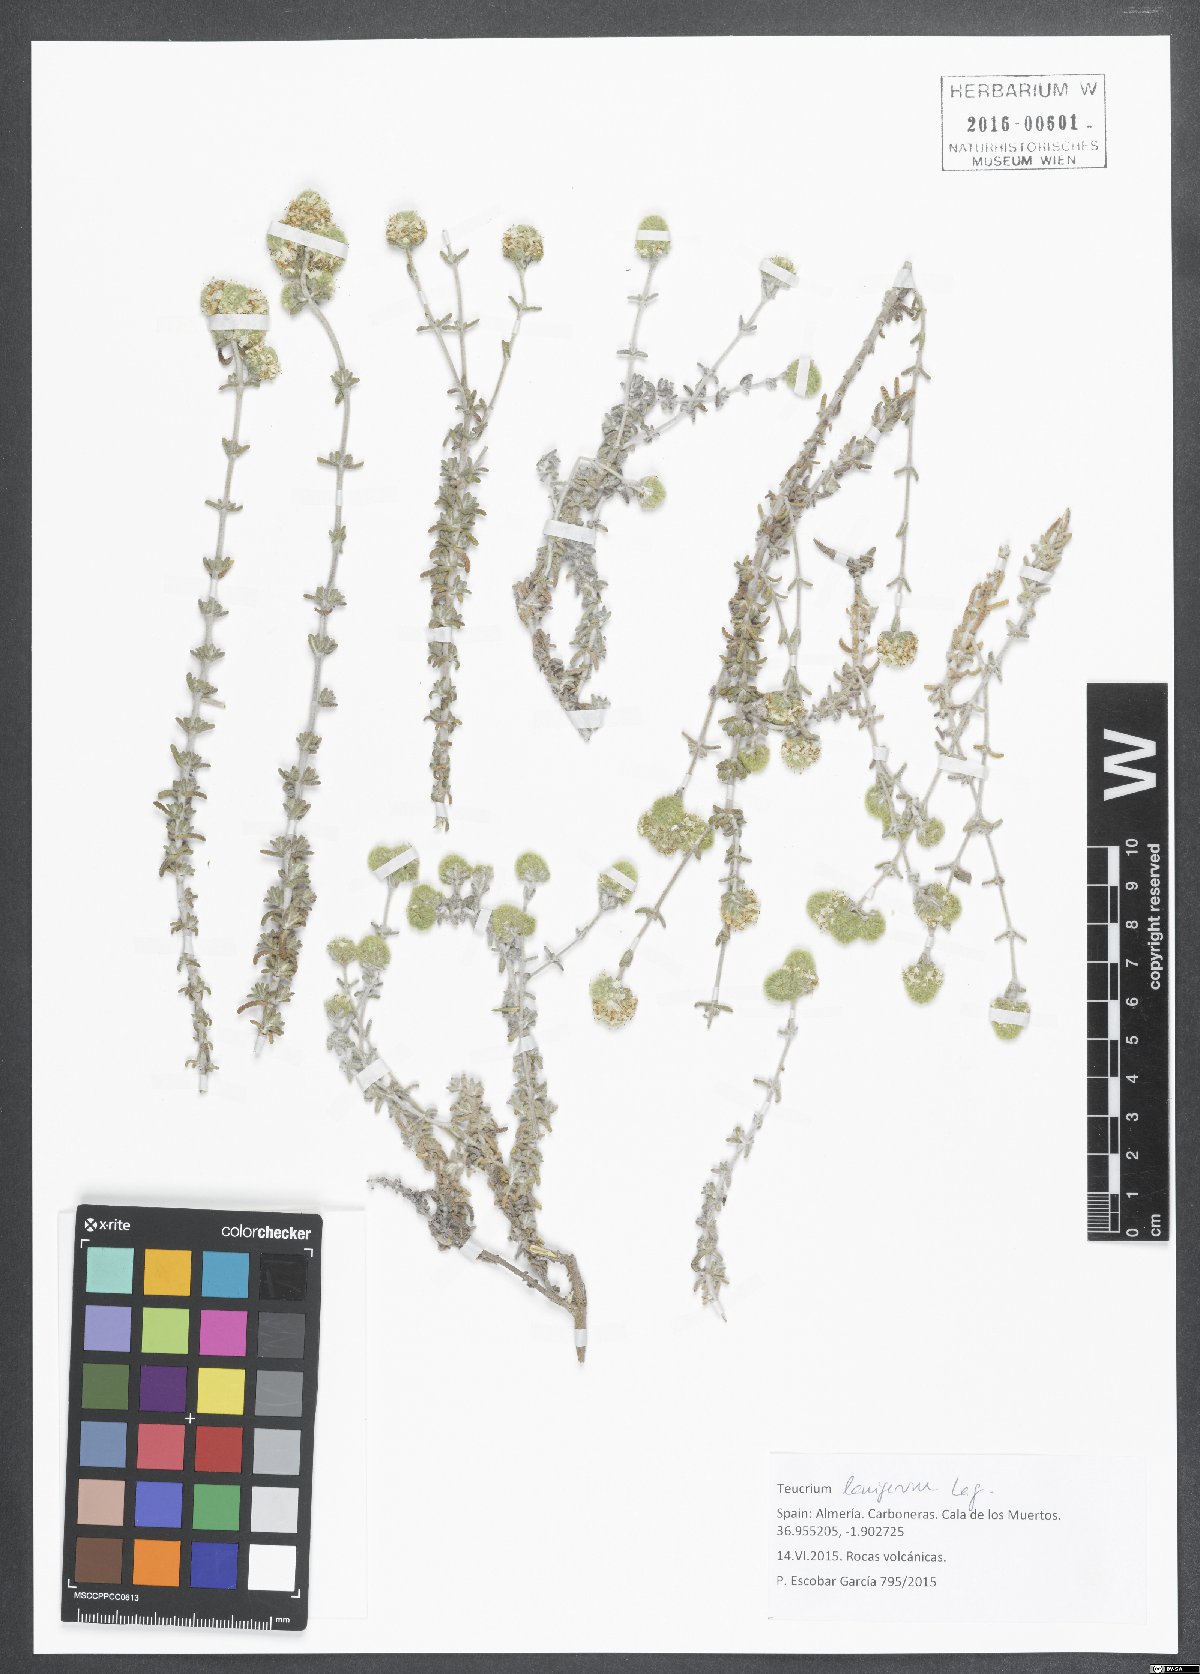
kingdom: Plantae
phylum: Tracheophyta
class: Magnoliopsida
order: Lamiales
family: Lamiaceae
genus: Teucrium
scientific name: Teucrium lanigerum
